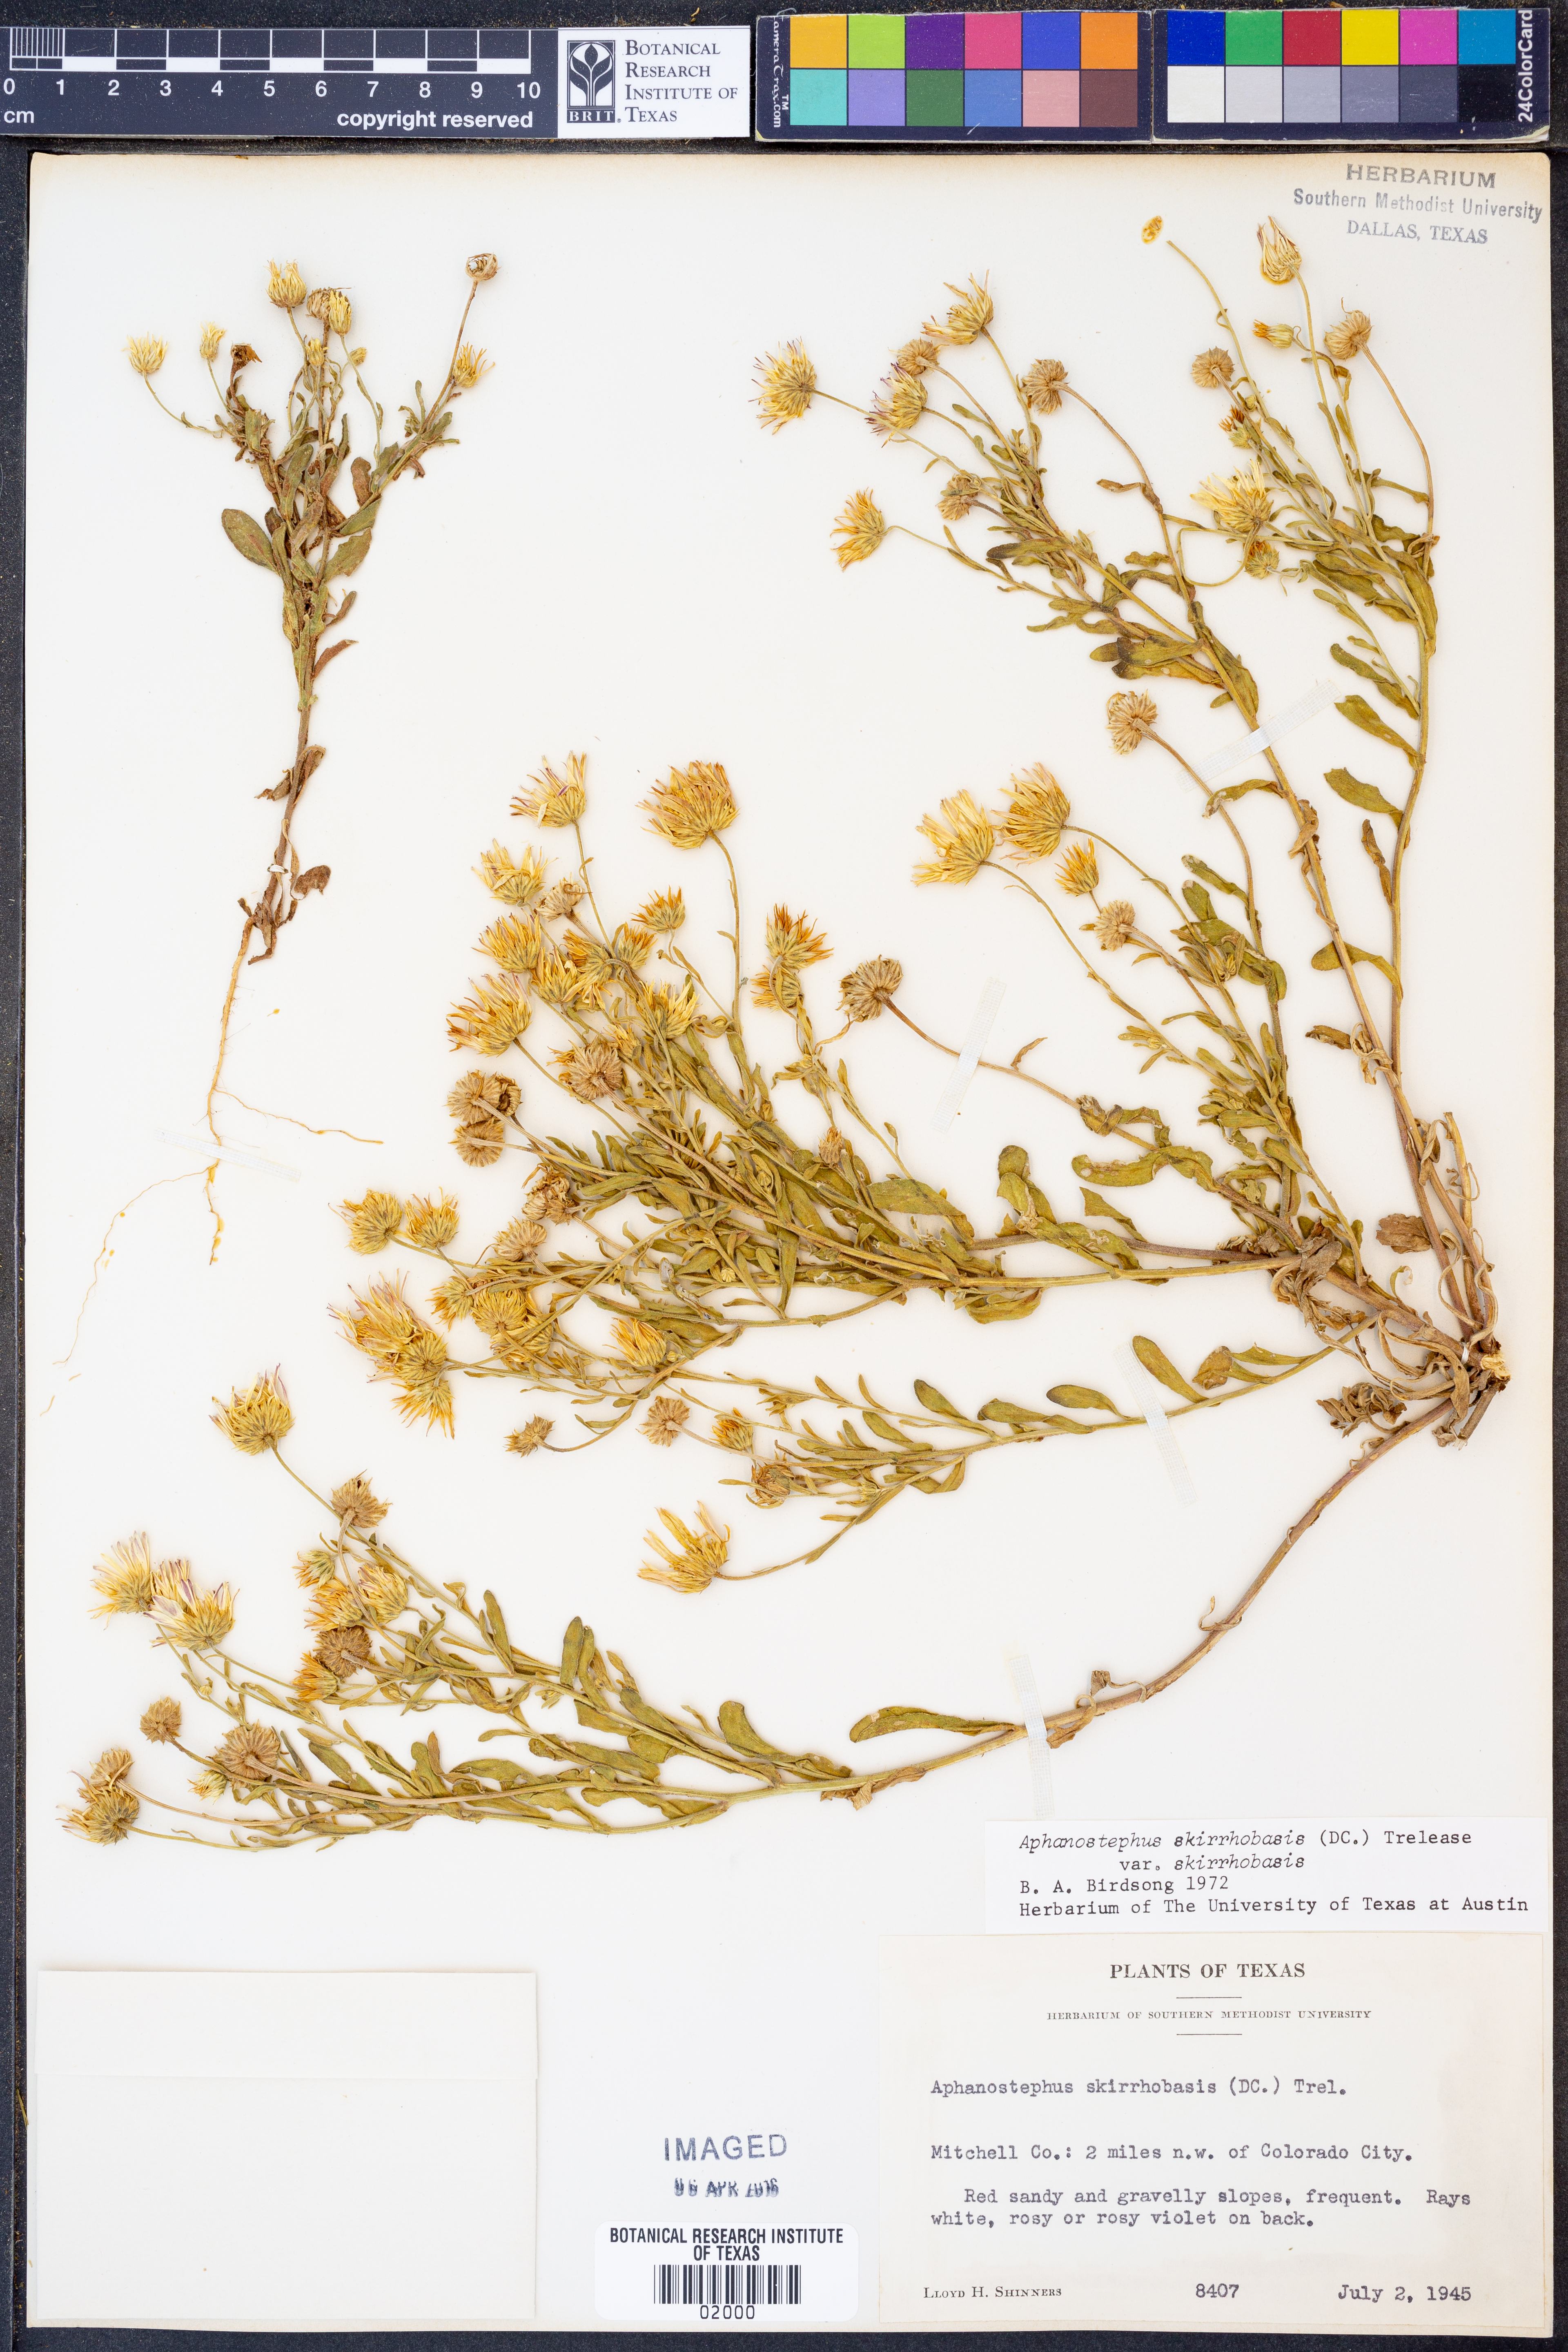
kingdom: Plantae
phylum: Tracheophyta
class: Magnoliopsida
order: Asterales
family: Asteraceae
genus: Aphanostephus
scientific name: Aphanostephus skirrhobasis
